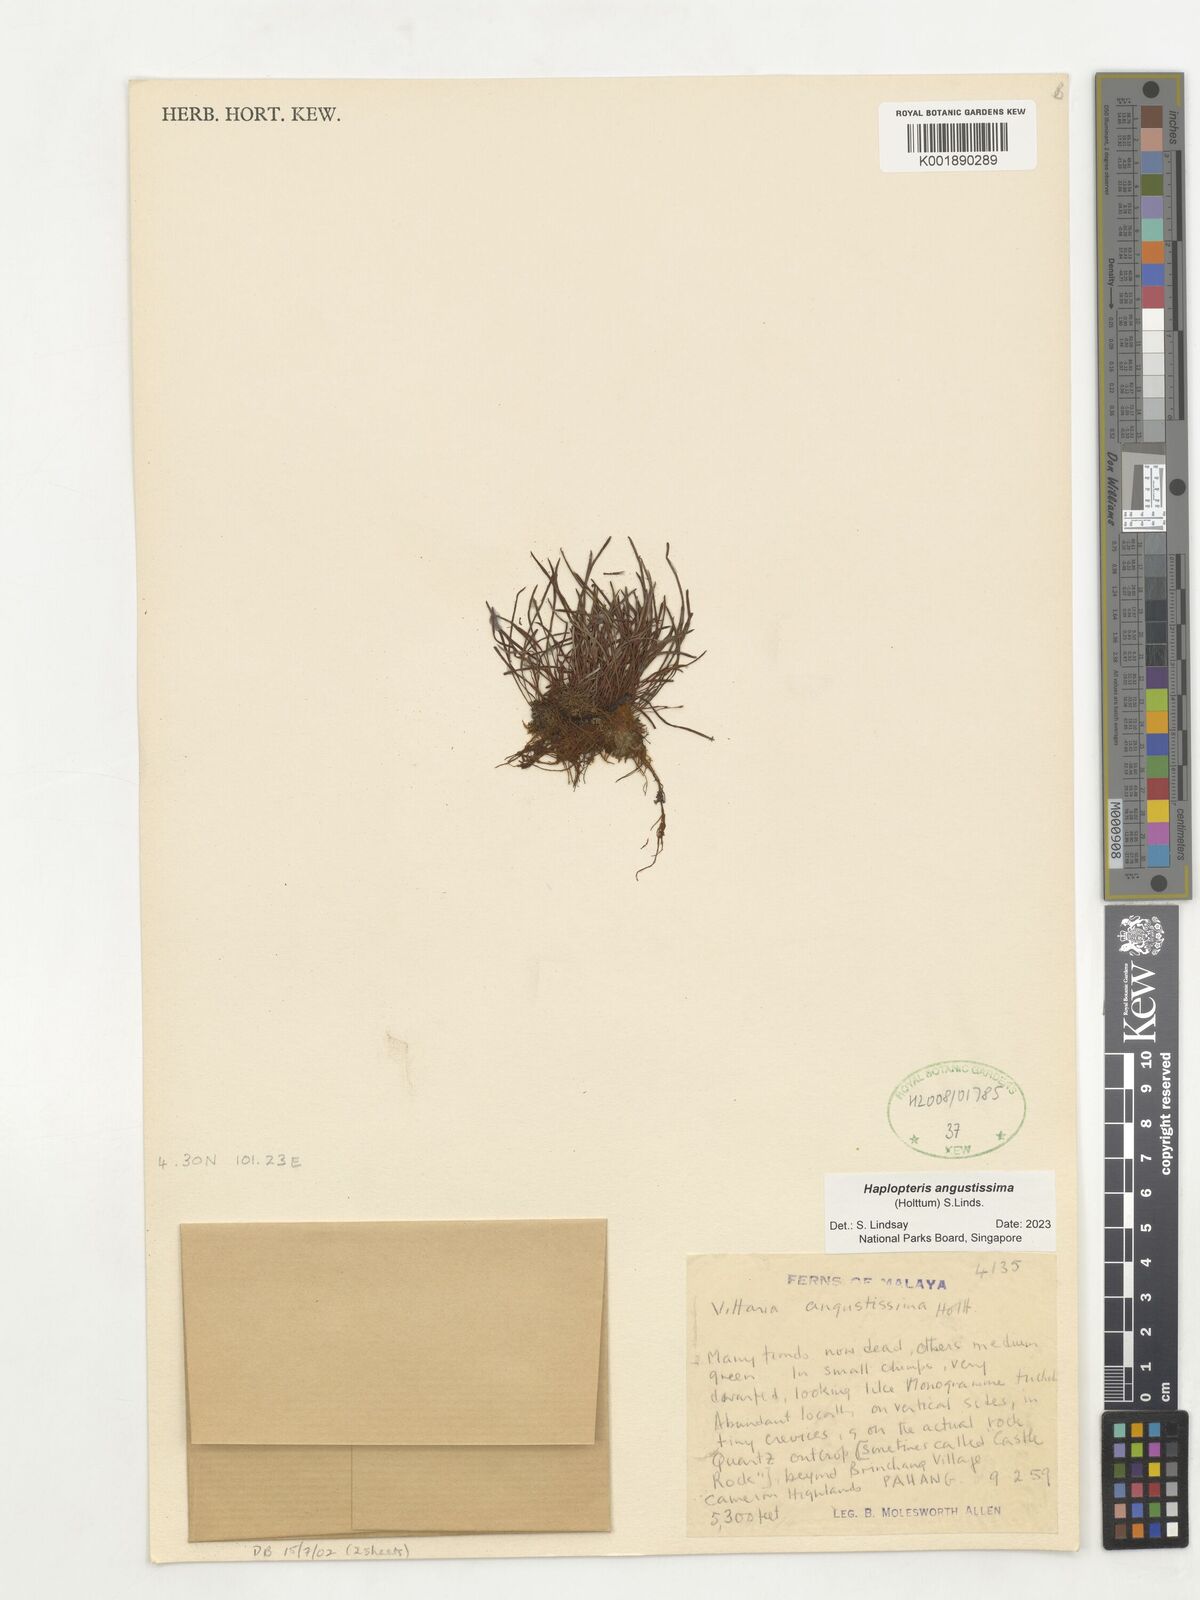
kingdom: Plantae
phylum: Tracheophyta
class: Polypodiopsida
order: Polypodiales
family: Pteridaceae
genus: Haplopteris
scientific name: Haplopteris angustissima
